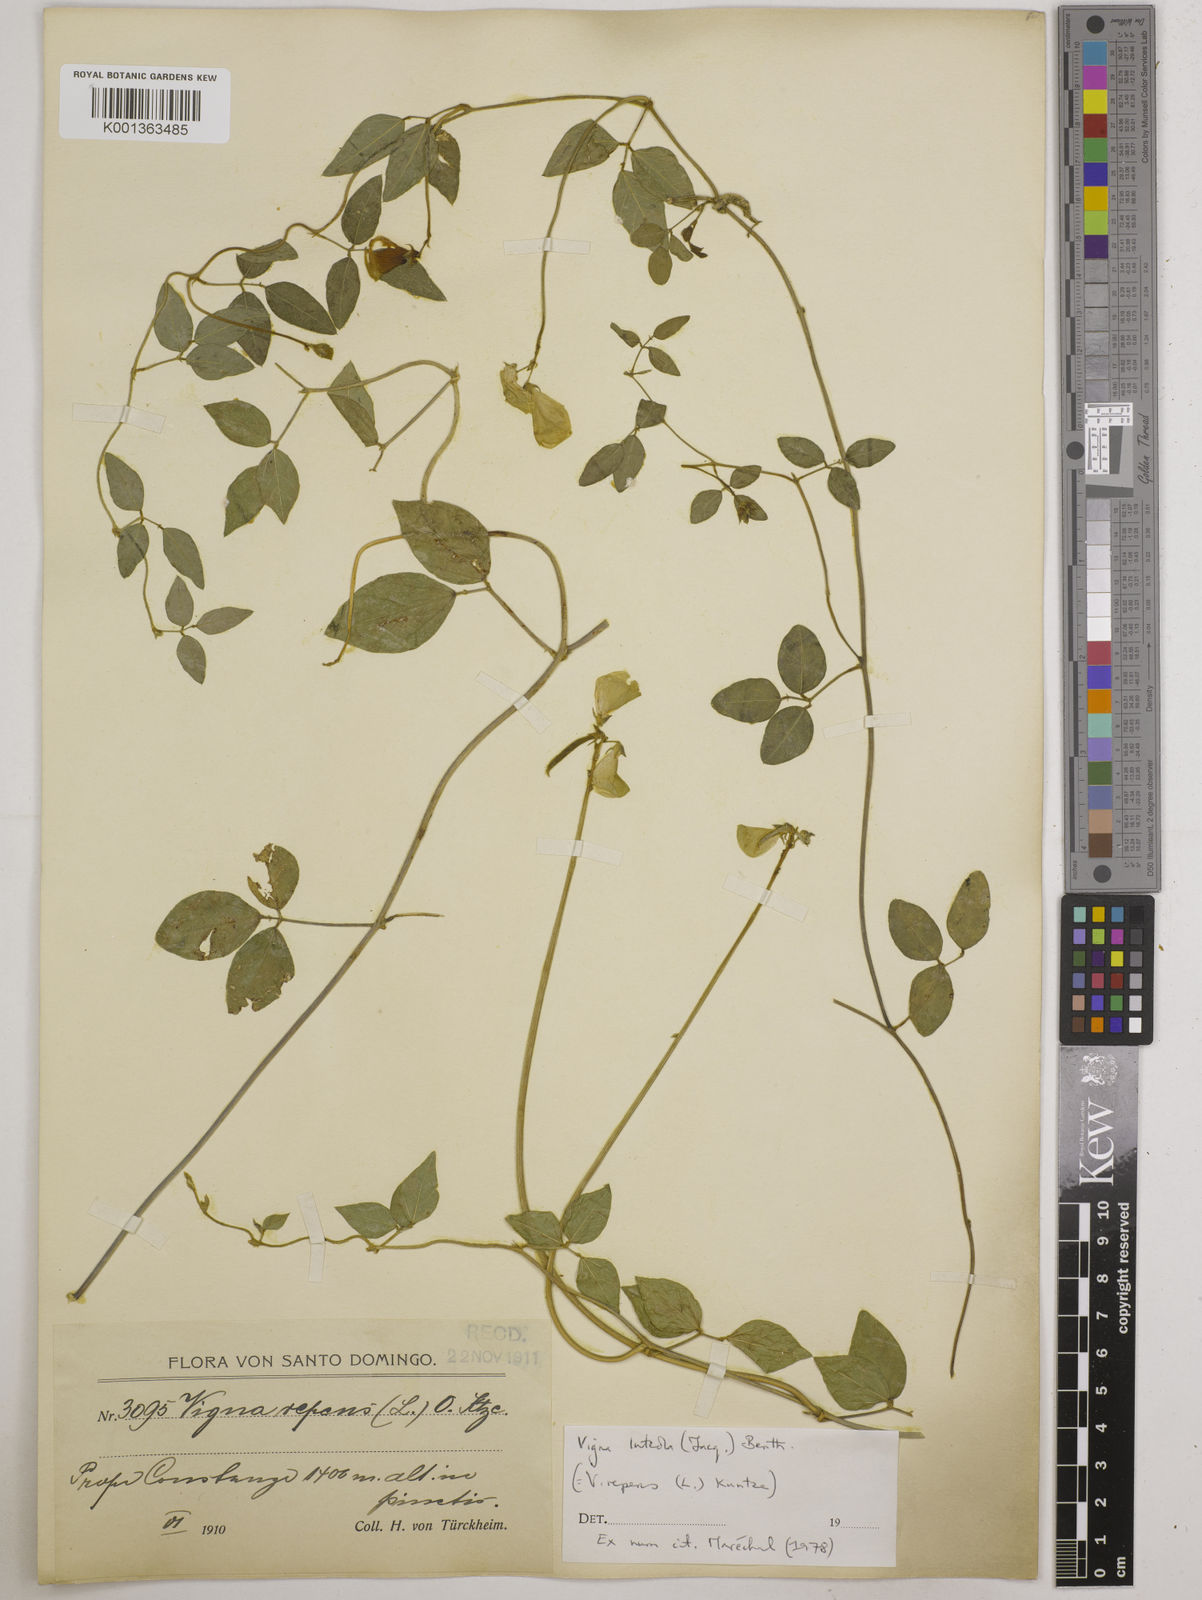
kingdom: Plantae
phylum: Tracheophyta
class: Magnoliopsida
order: Fabales
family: Fabaceae
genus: Vigna
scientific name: Vigna luteola
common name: Hairypod cowpea
